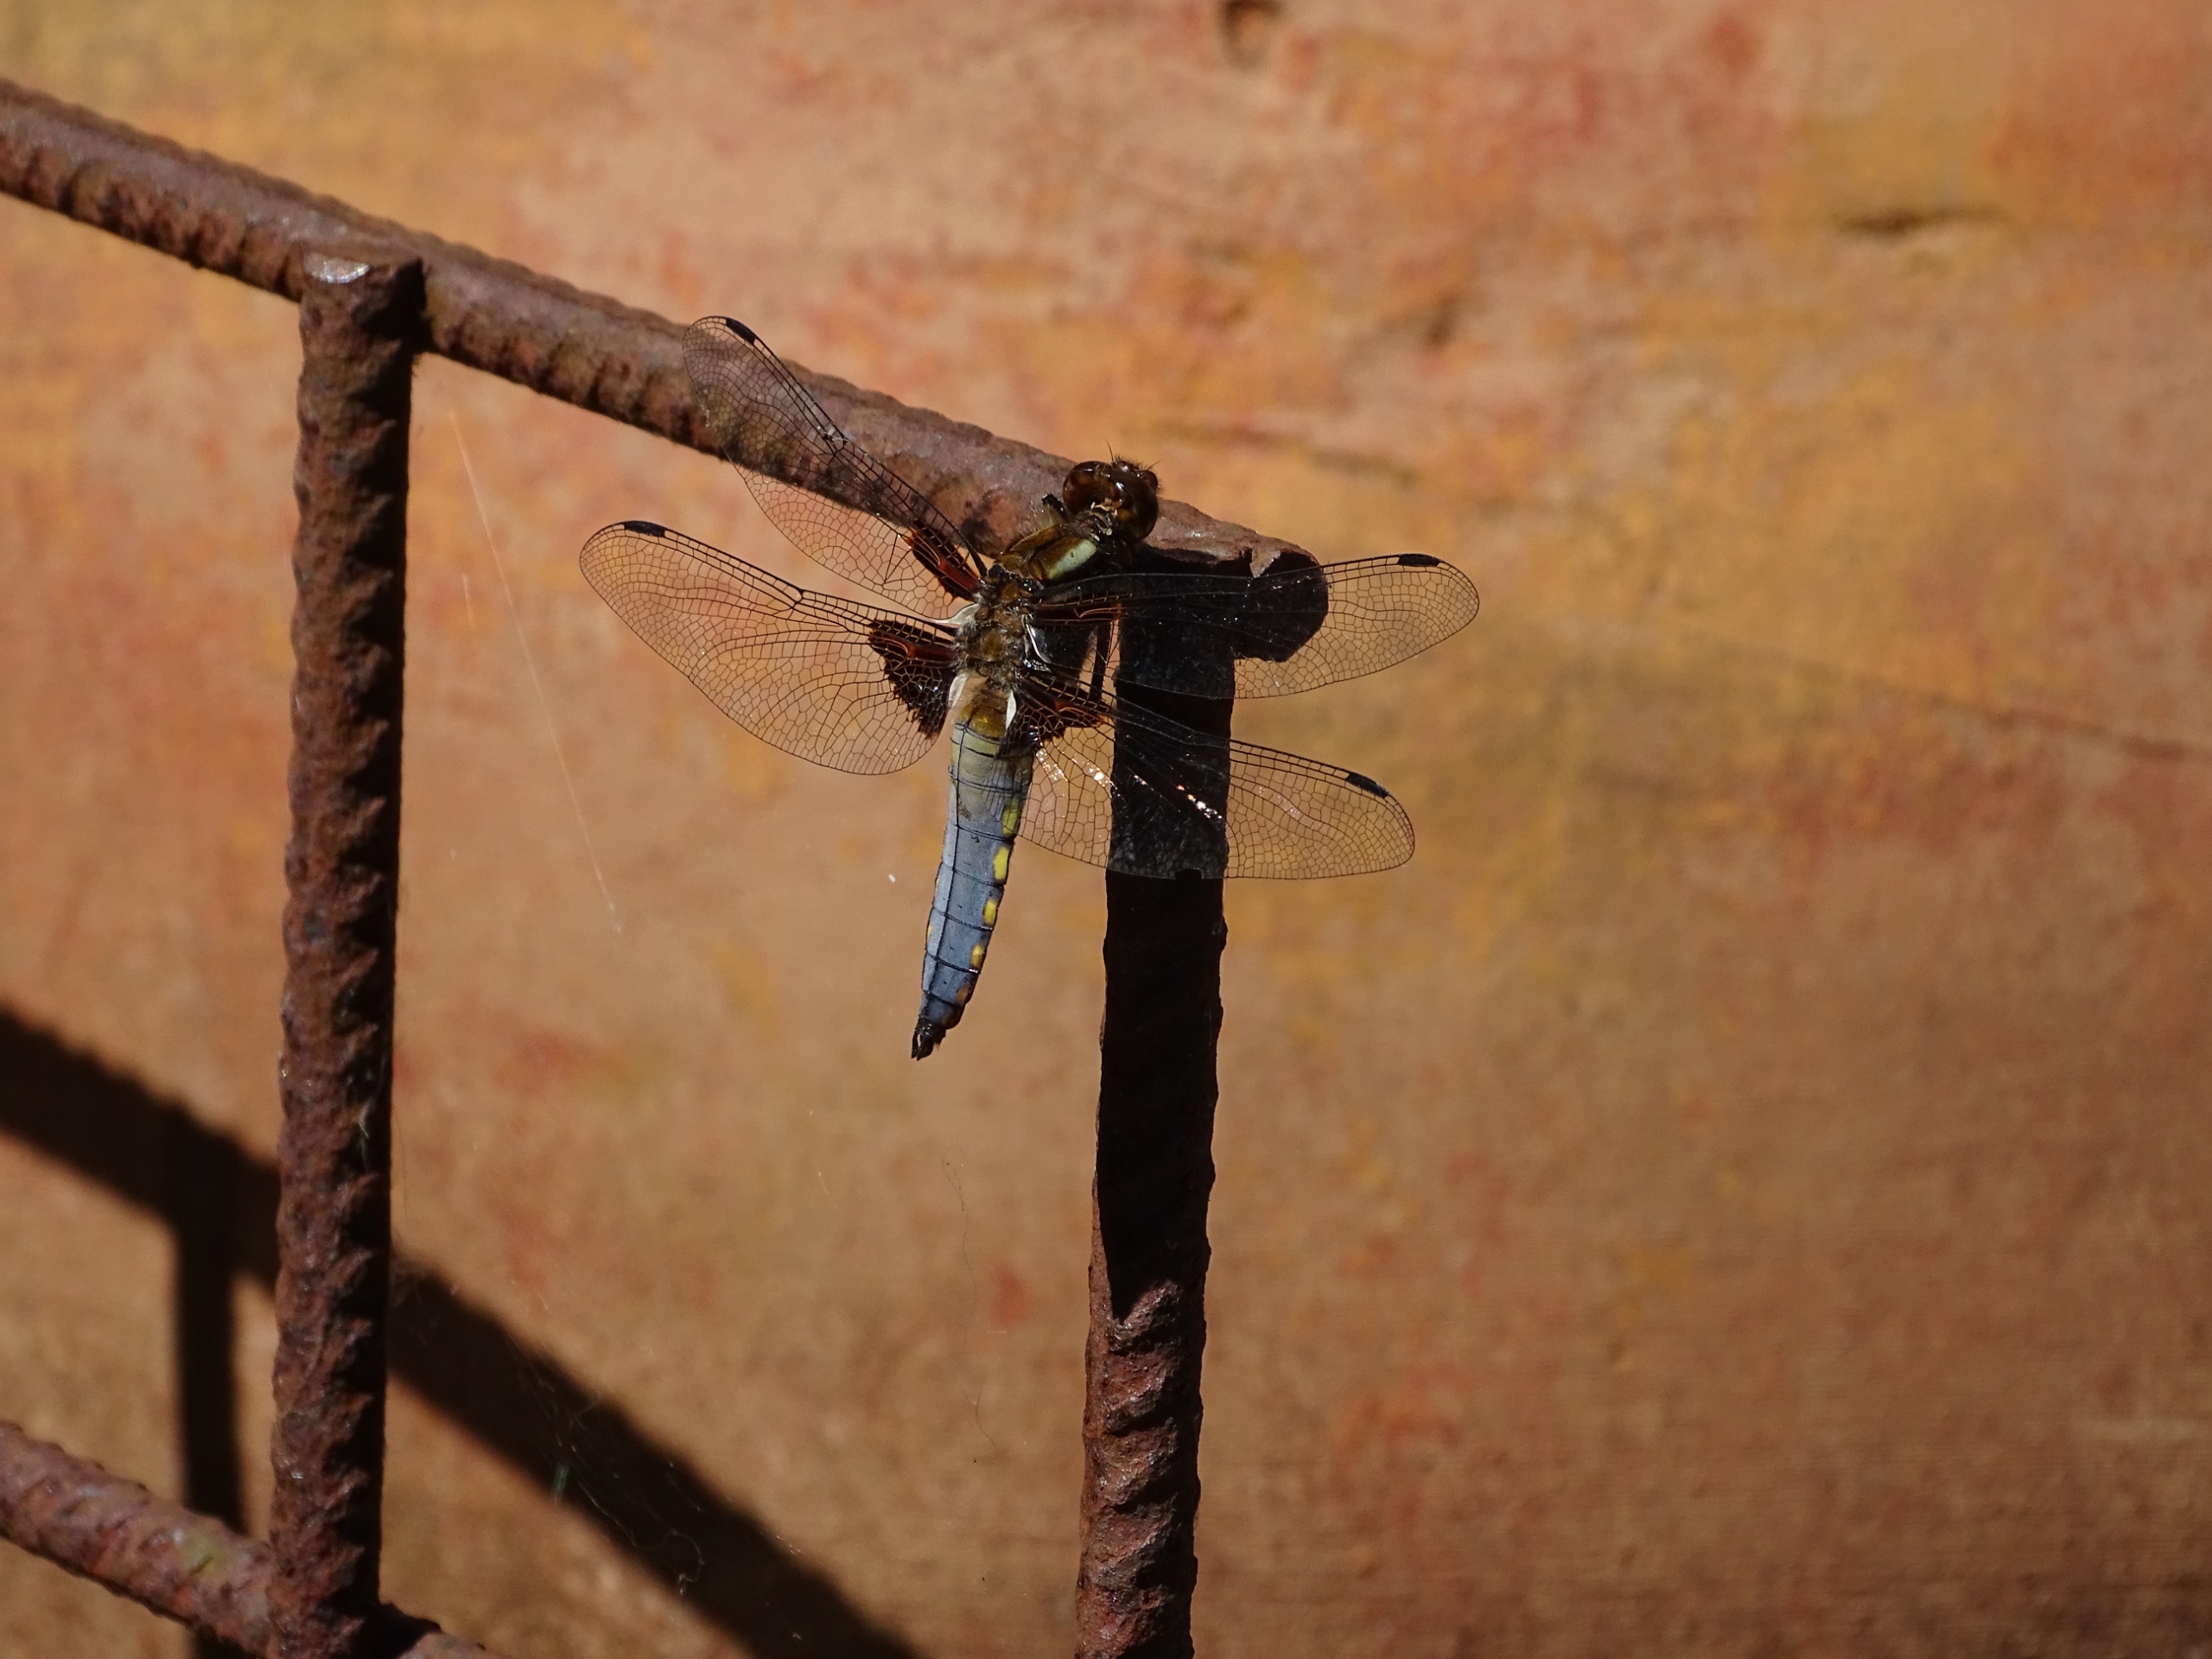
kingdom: Animalia
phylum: Arthropoda
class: Insecta
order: Odonata
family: Libellulidae
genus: Libellula
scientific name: Libellula depressa
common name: Blå libel
